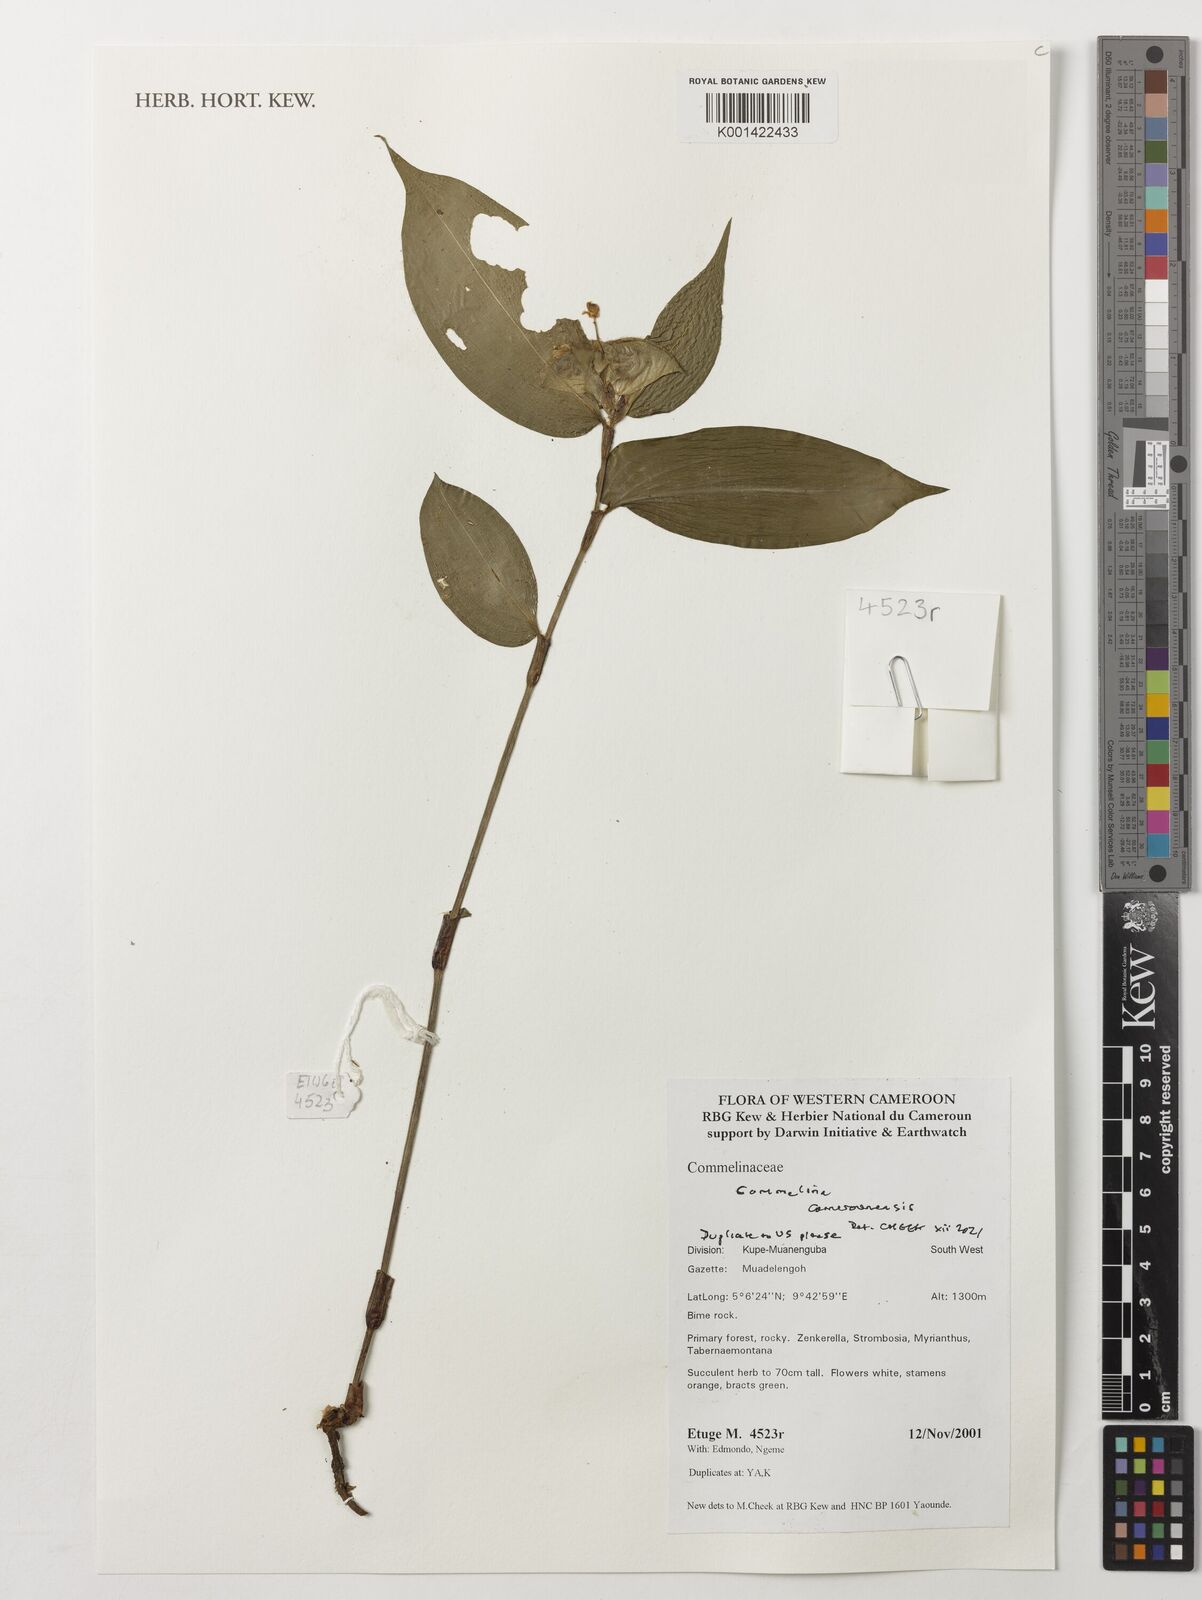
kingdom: Plantae
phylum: Tracheophyta
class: Liliopsida
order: Commelinales
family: Commelinaceae
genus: Commelina
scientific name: Commelina cameroonensis
